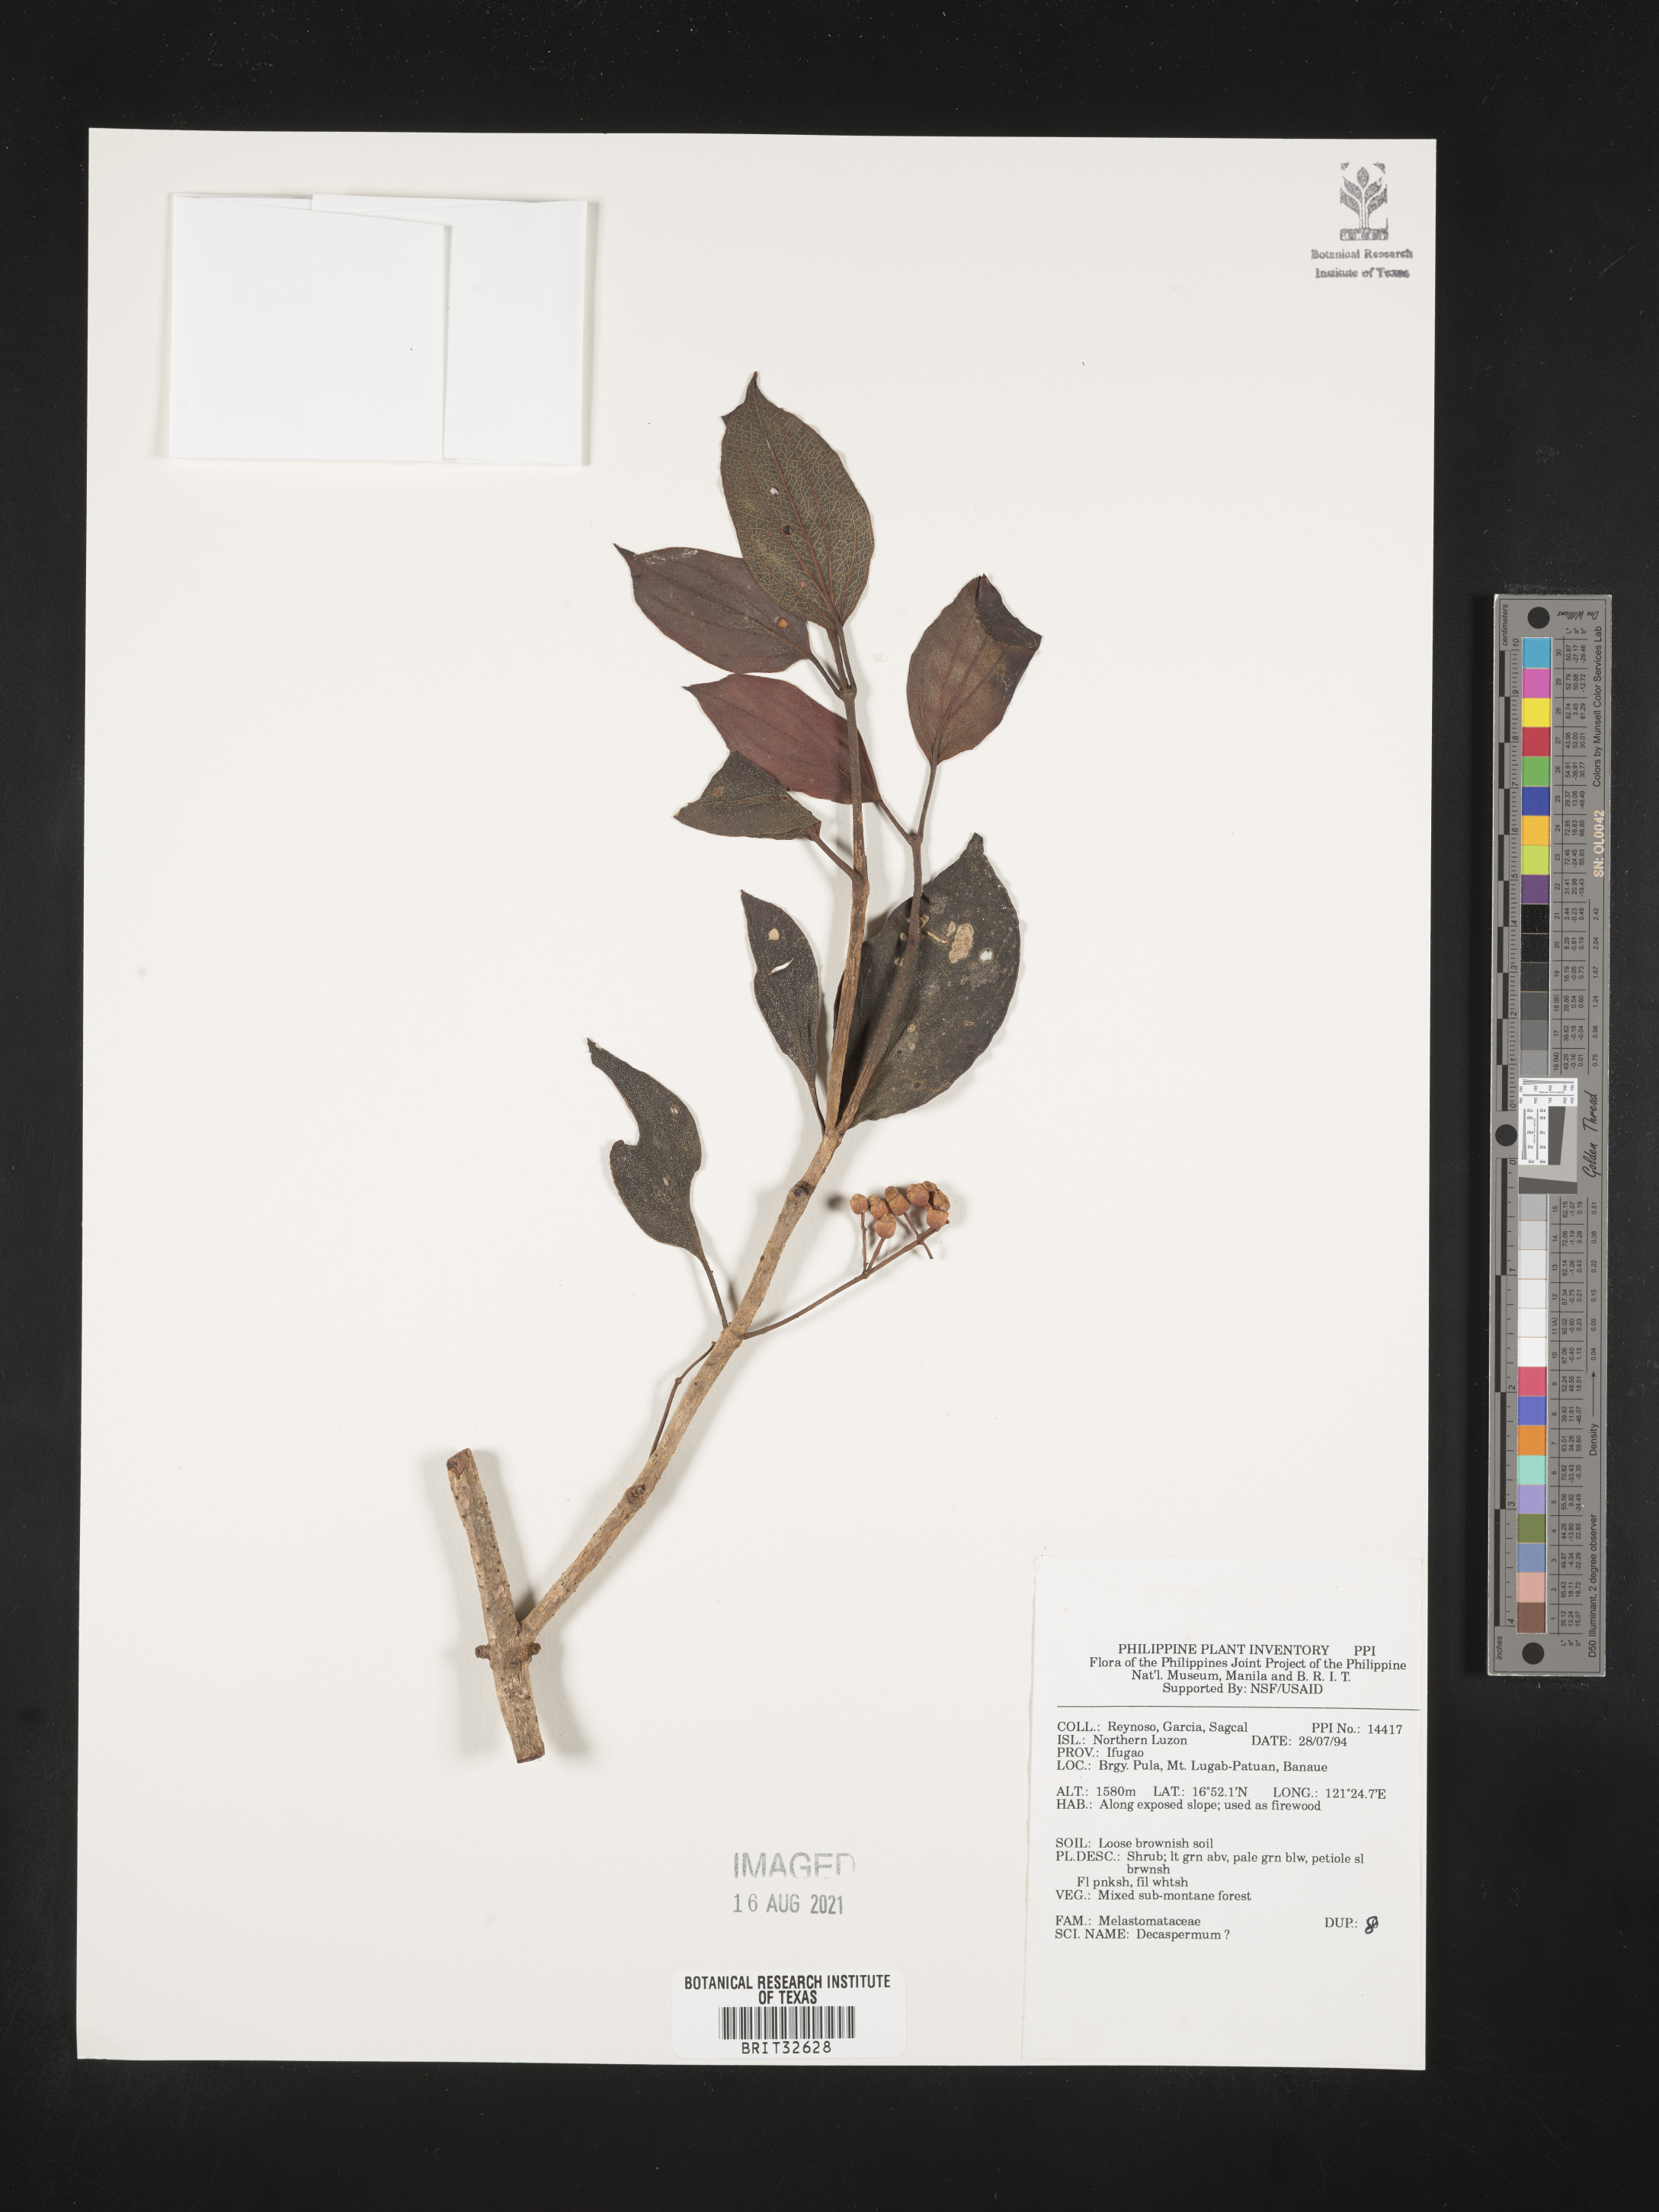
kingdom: Plantae
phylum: Tracheophyta
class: Magnoliopsida
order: Myrtales
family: Myrtaceae
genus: Decaspermum
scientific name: Decaspermum
